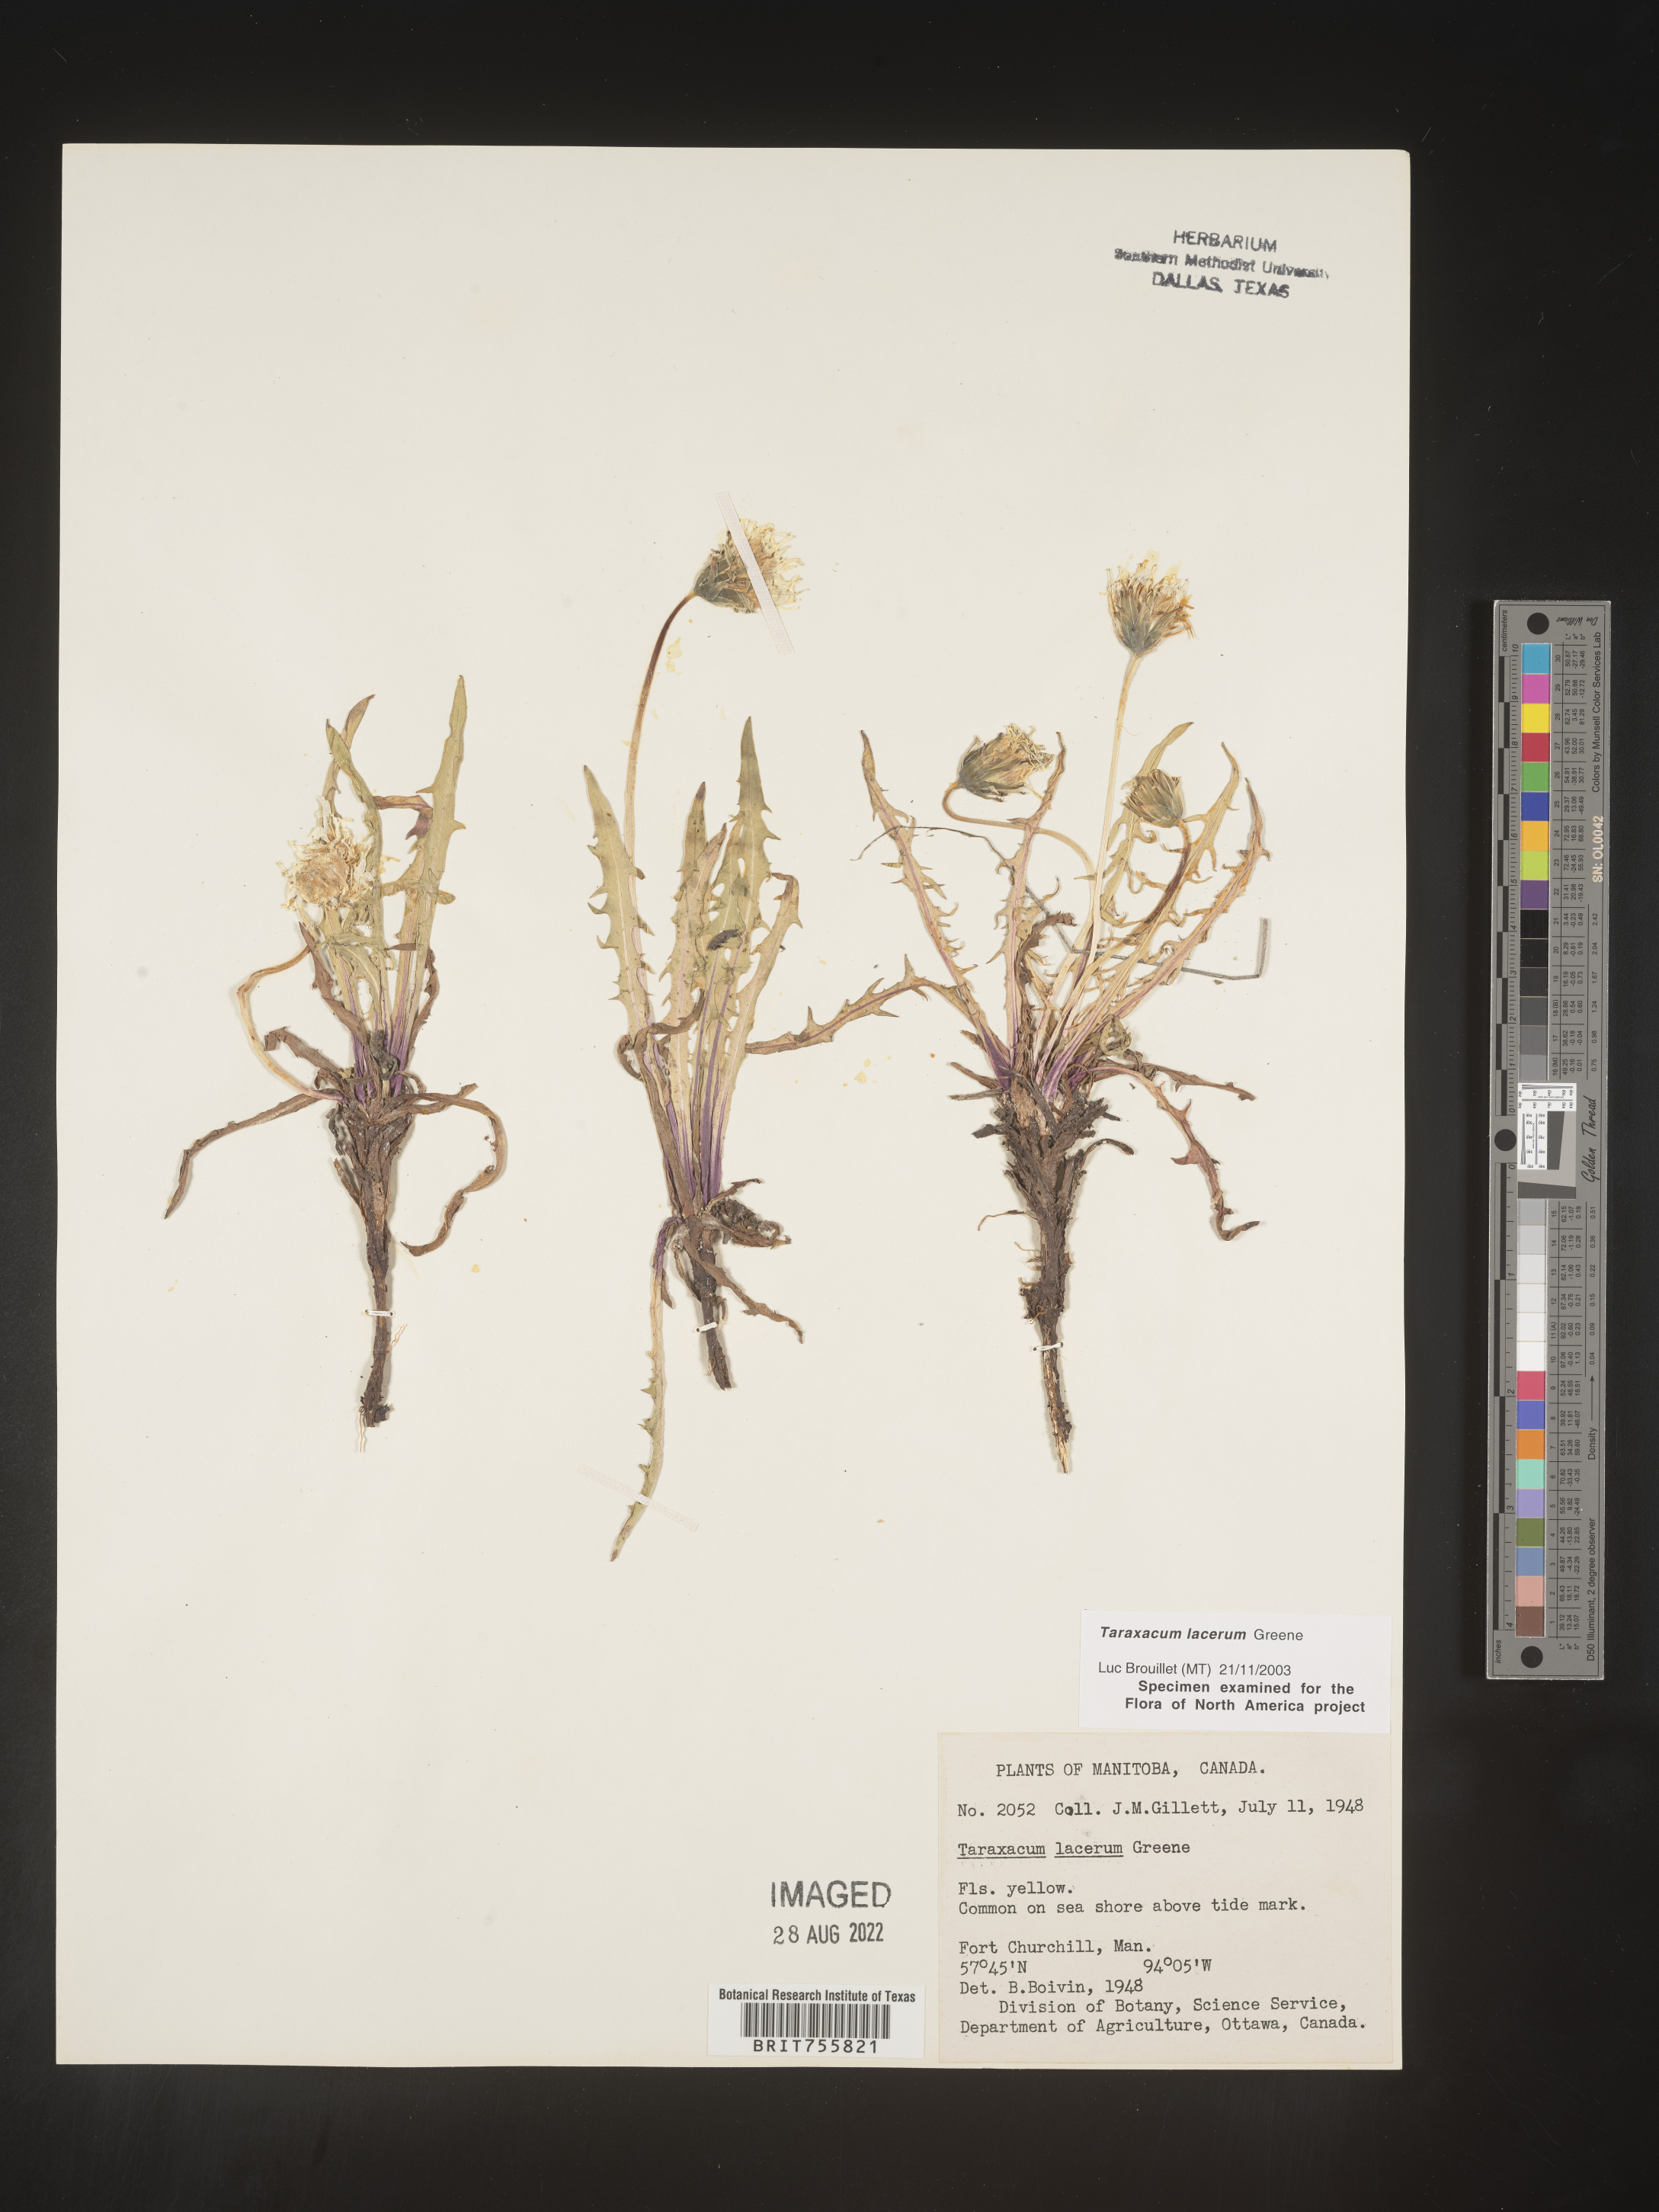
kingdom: Plantae
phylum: Tracheophyta
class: Magnoliopsida
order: Asterales
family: Asteraceae
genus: Taraxacum
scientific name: Taraxacum
